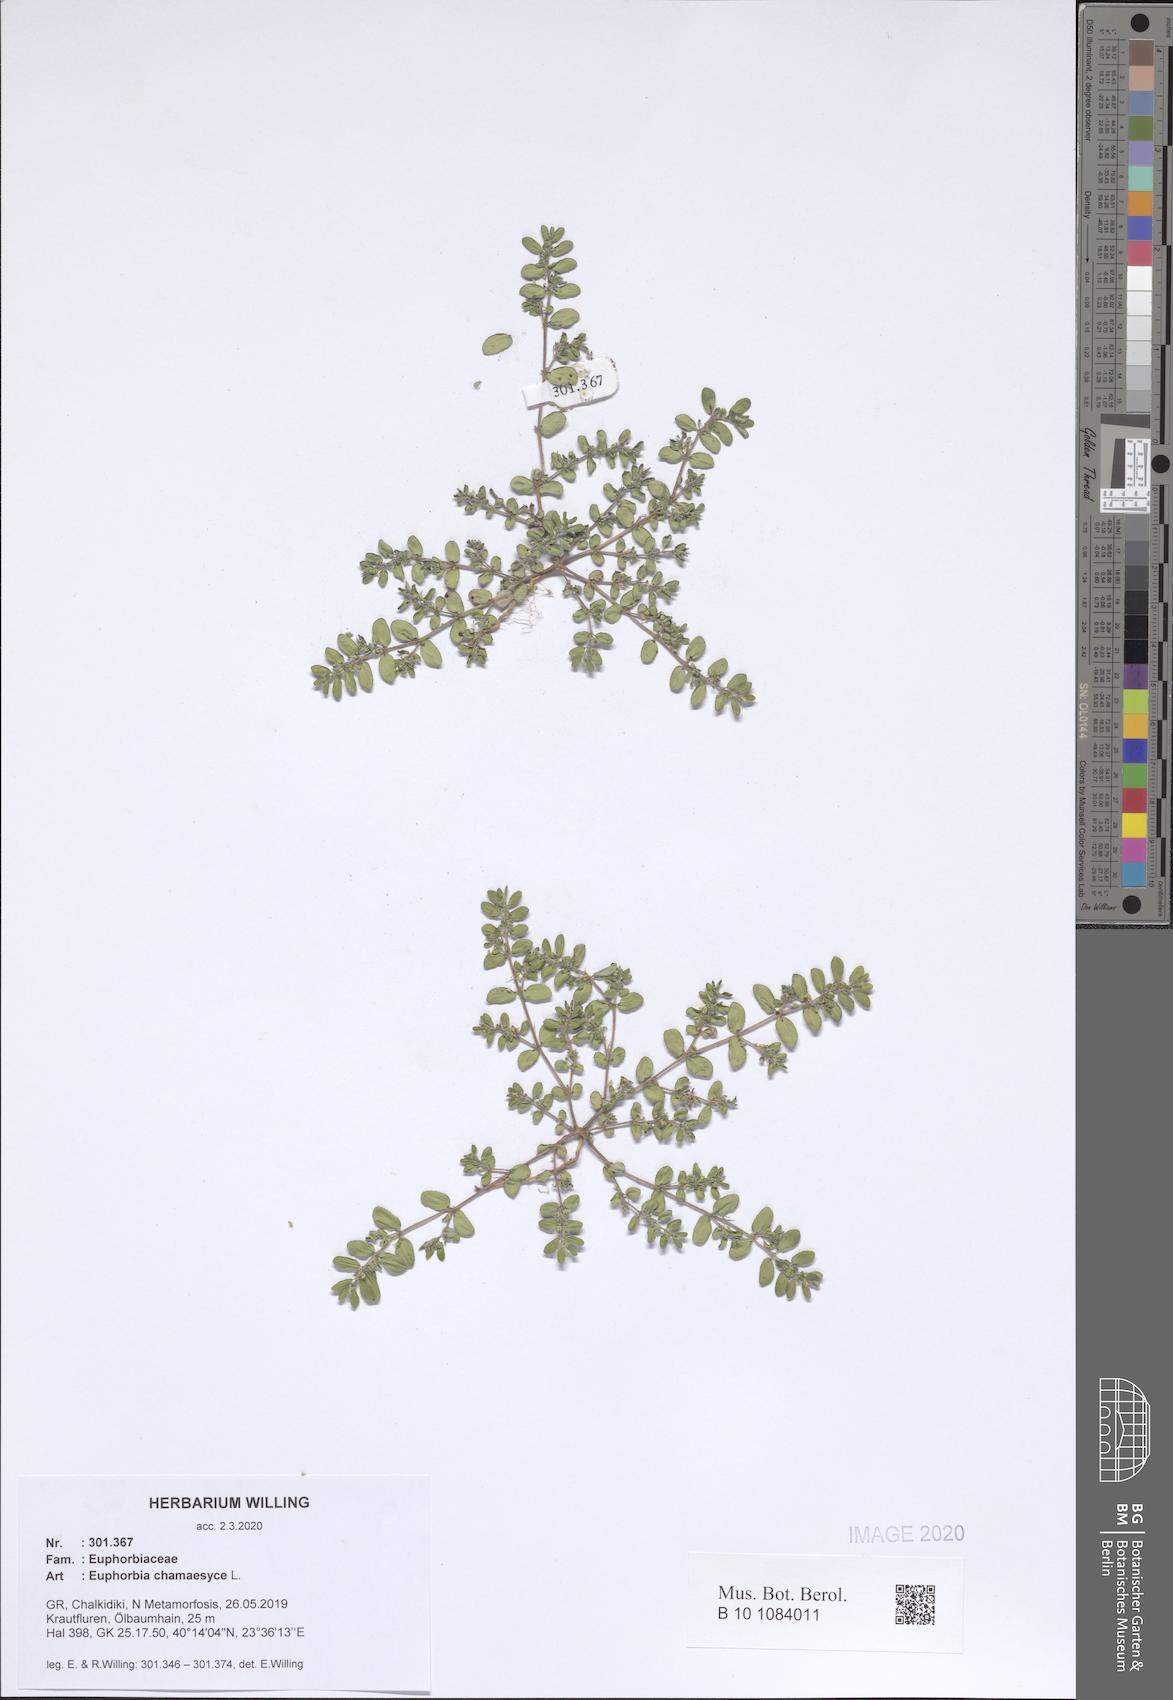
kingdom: Plantae
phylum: Tracheophyta
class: Magnoliopsida
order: Malpighiales
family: Euphorbiaceae
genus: Euphorbia
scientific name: Euphorbia chamaesyce
